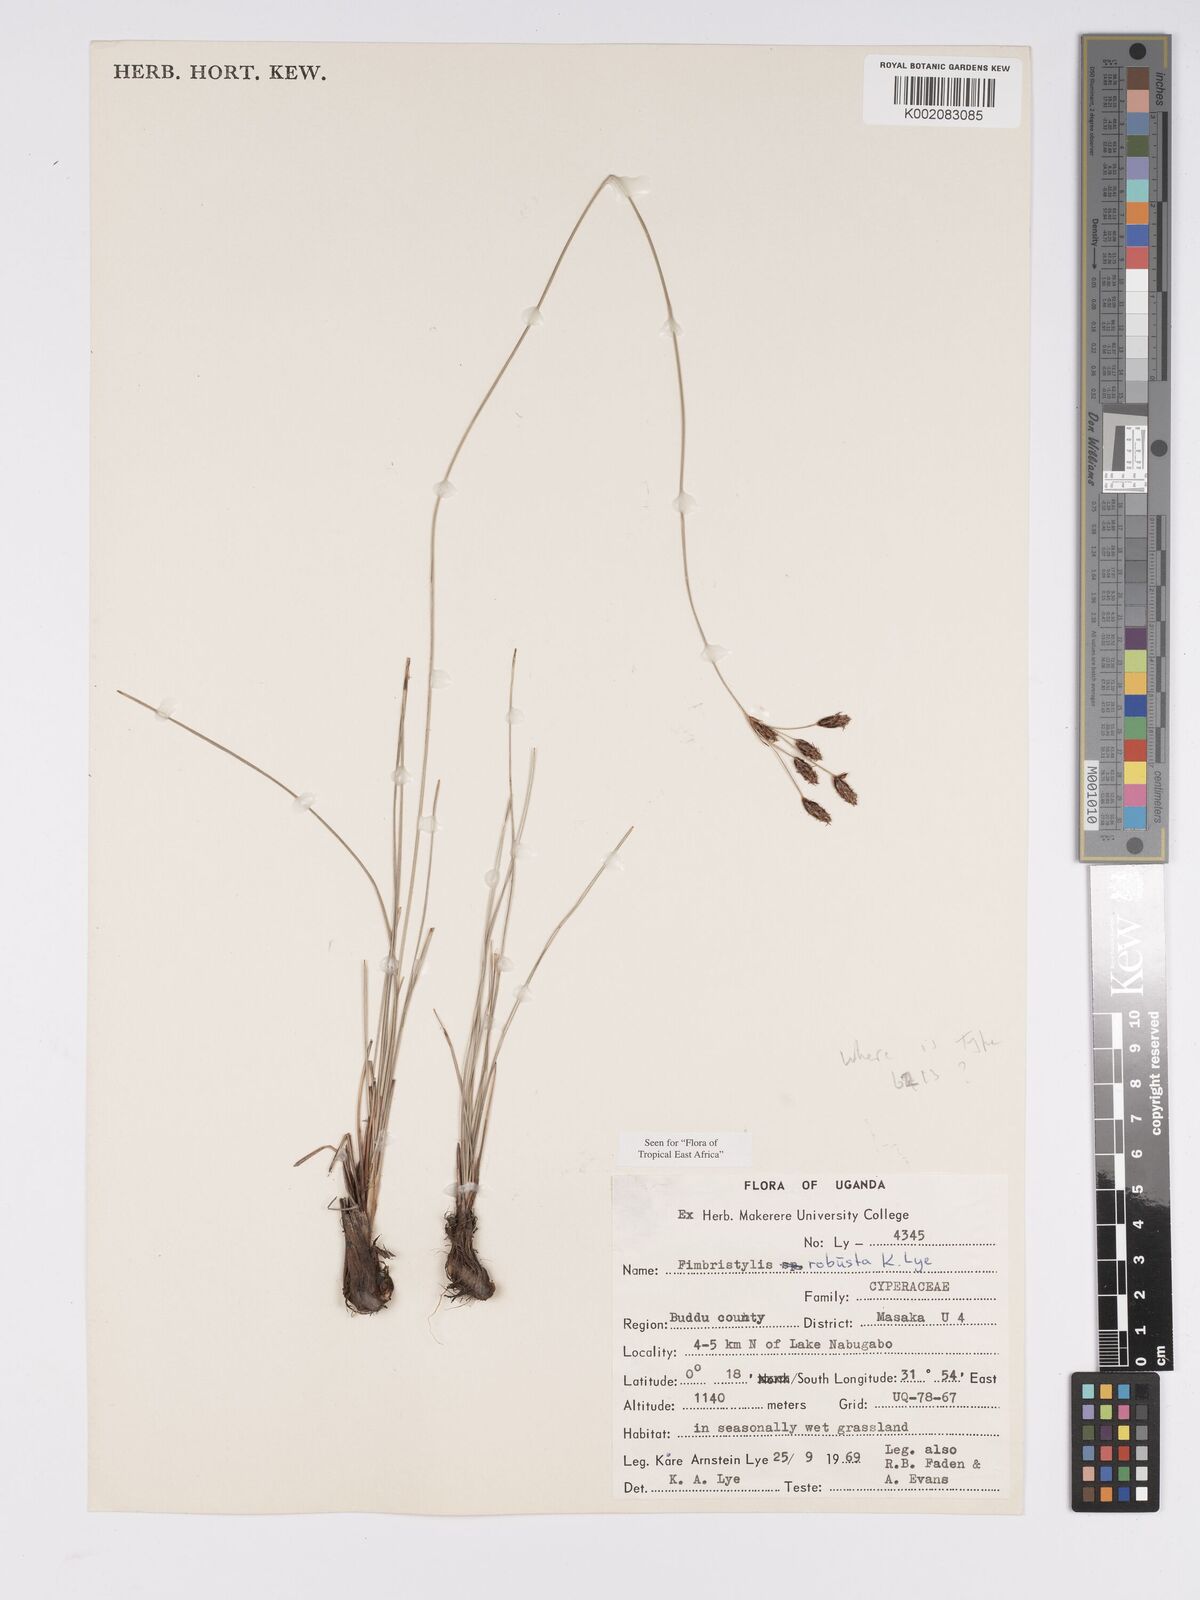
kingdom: Plantae
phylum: Tracheophyta
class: Liliopsida
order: Poales
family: Cyperaceae
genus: Bulbostylis
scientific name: Bulbostylis
